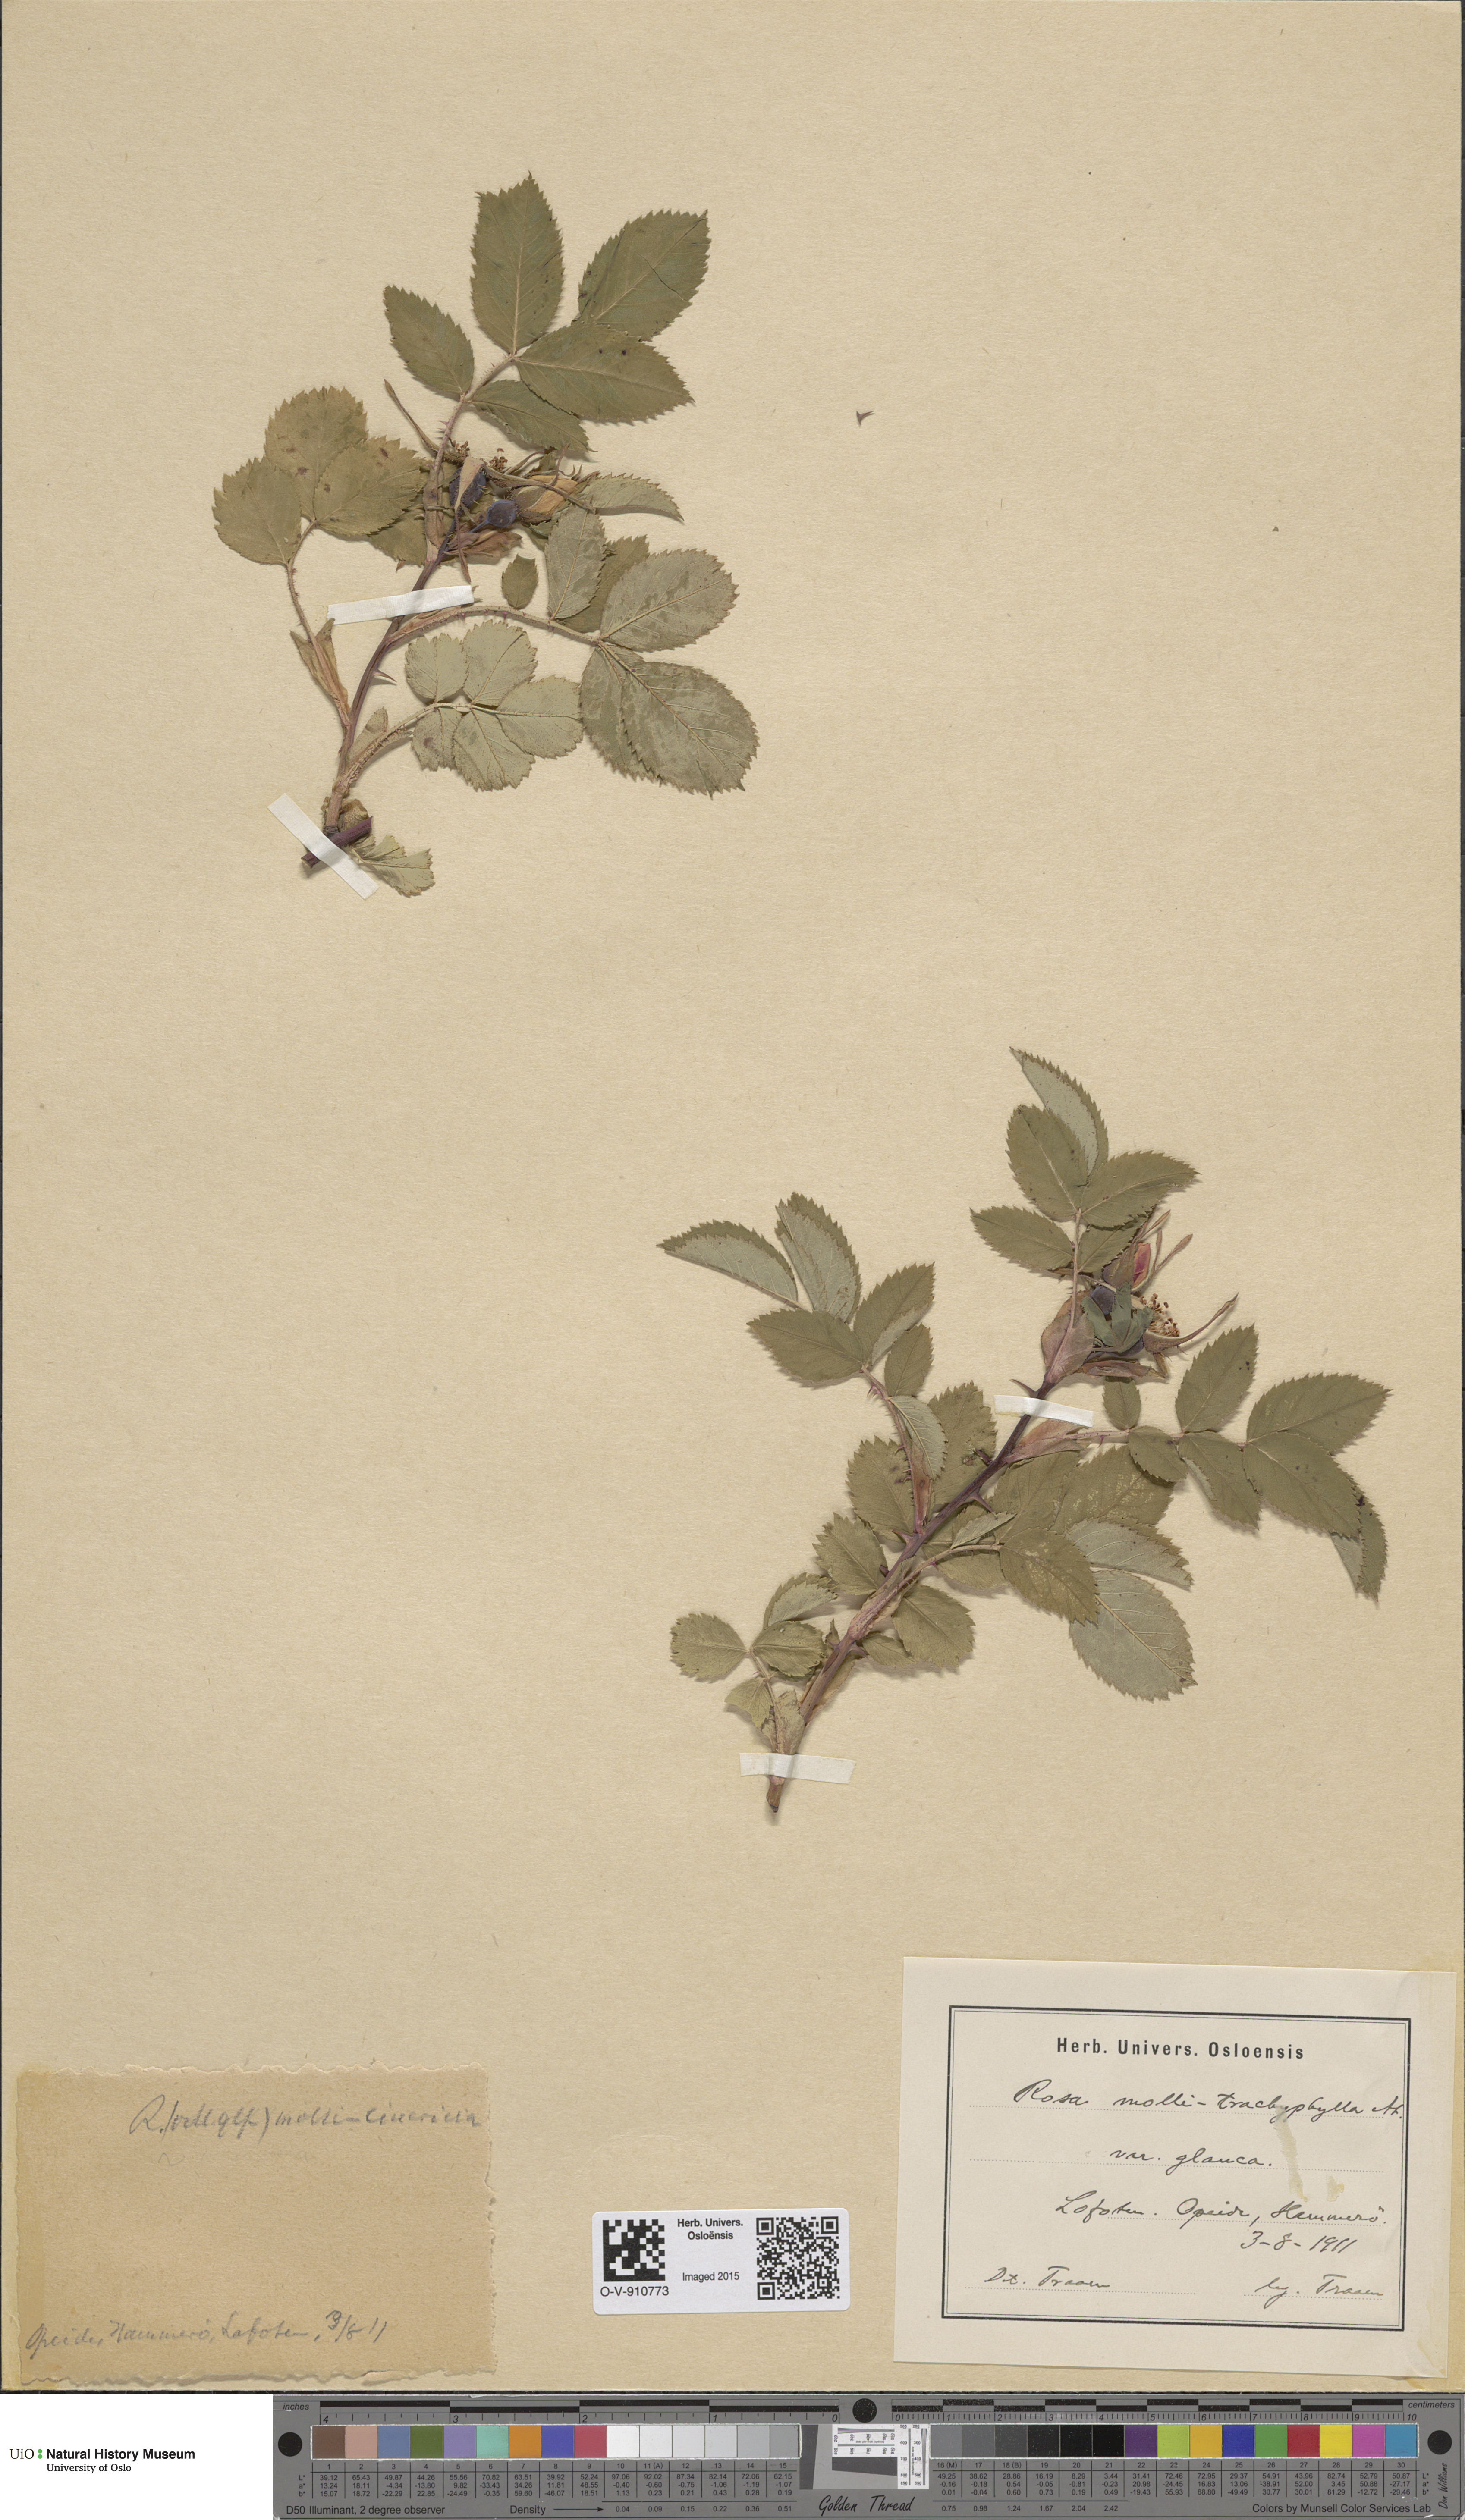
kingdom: Plantae
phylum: Tracheophyta
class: Magnoliopsida
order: Rosales
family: Rosaceae
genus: Rosa
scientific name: Rosa mollis
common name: Rose
